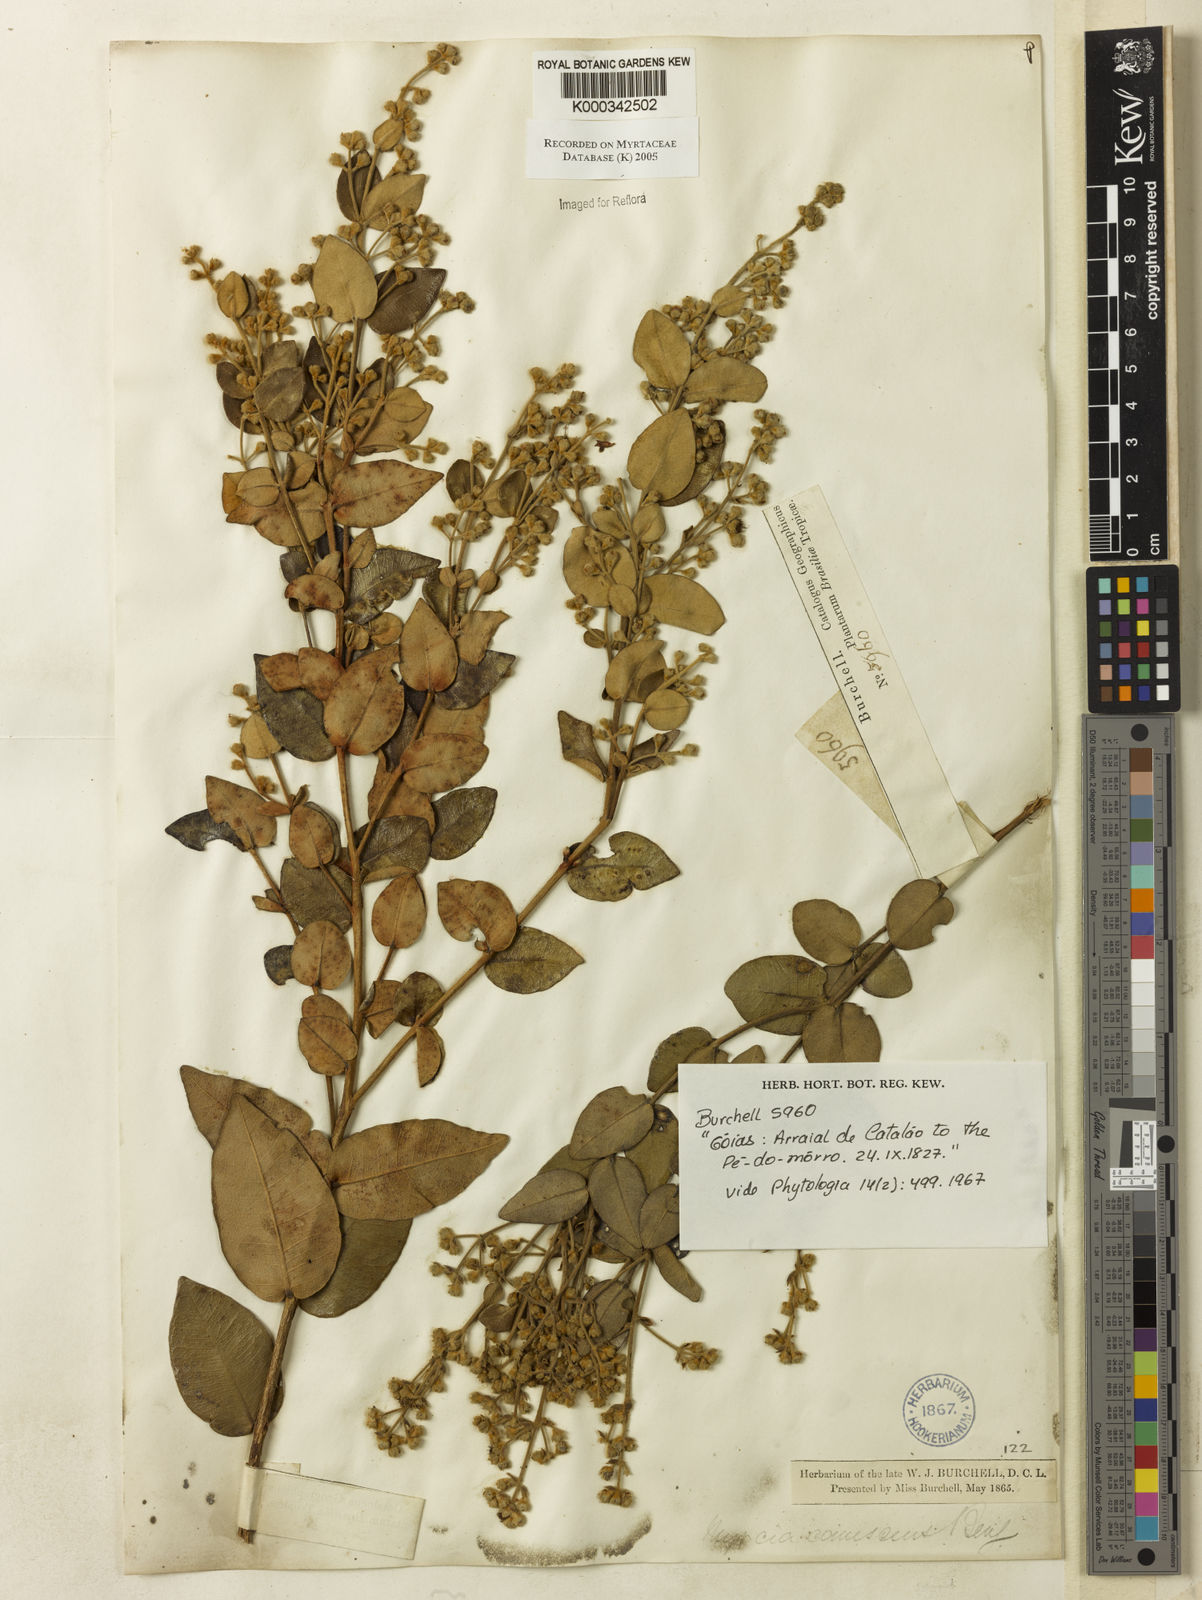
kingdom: Plantae
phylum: Tracheophyta
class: Magnoliopsida
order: Myrtales
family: Myrtaceae
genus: Myrcia
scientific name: Myrcia canescens
